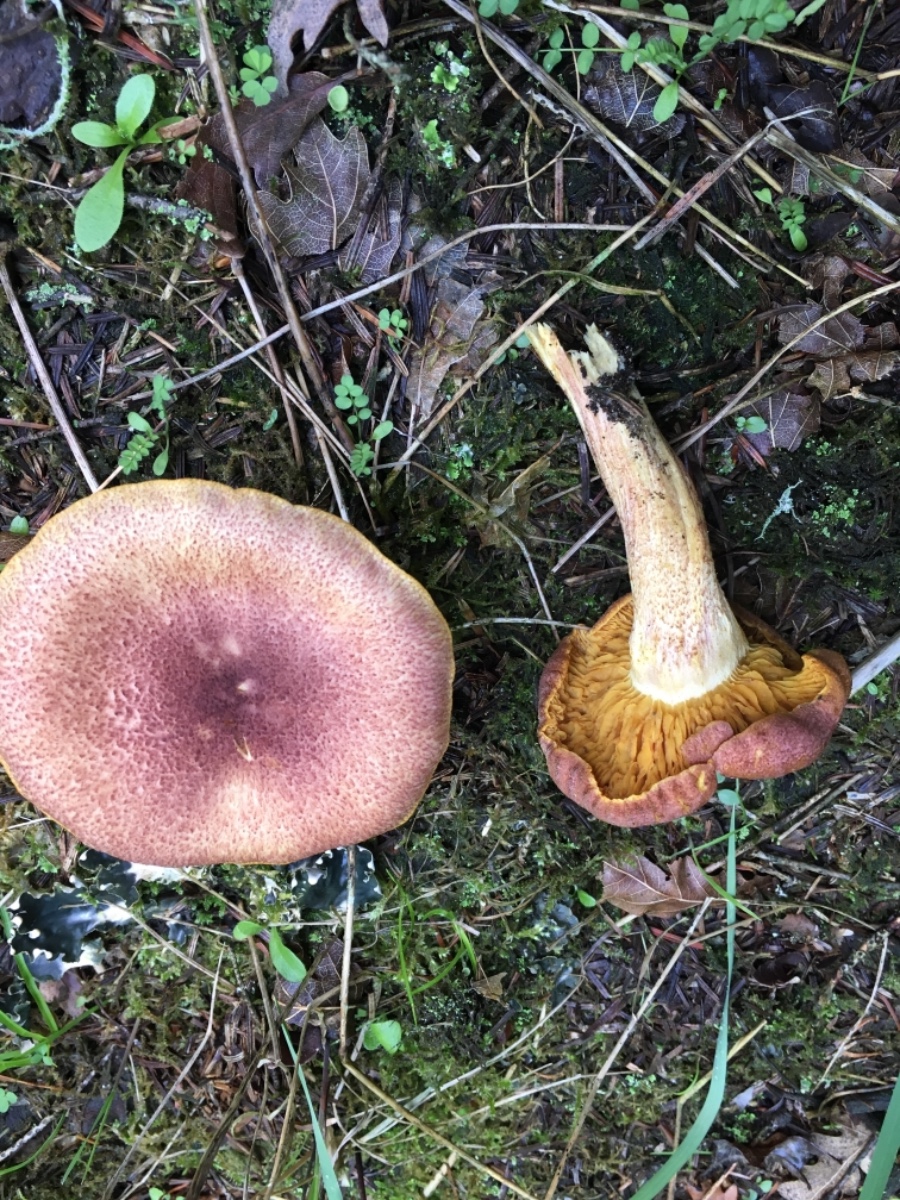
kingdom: Fungi
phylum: Basidiomycota
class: Agaricomycetes
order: Agaricales
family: Tricholomataceae
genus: Tricholomopsis
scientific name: Tricholomopsis rutilans
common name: purpur-væbnerhat
